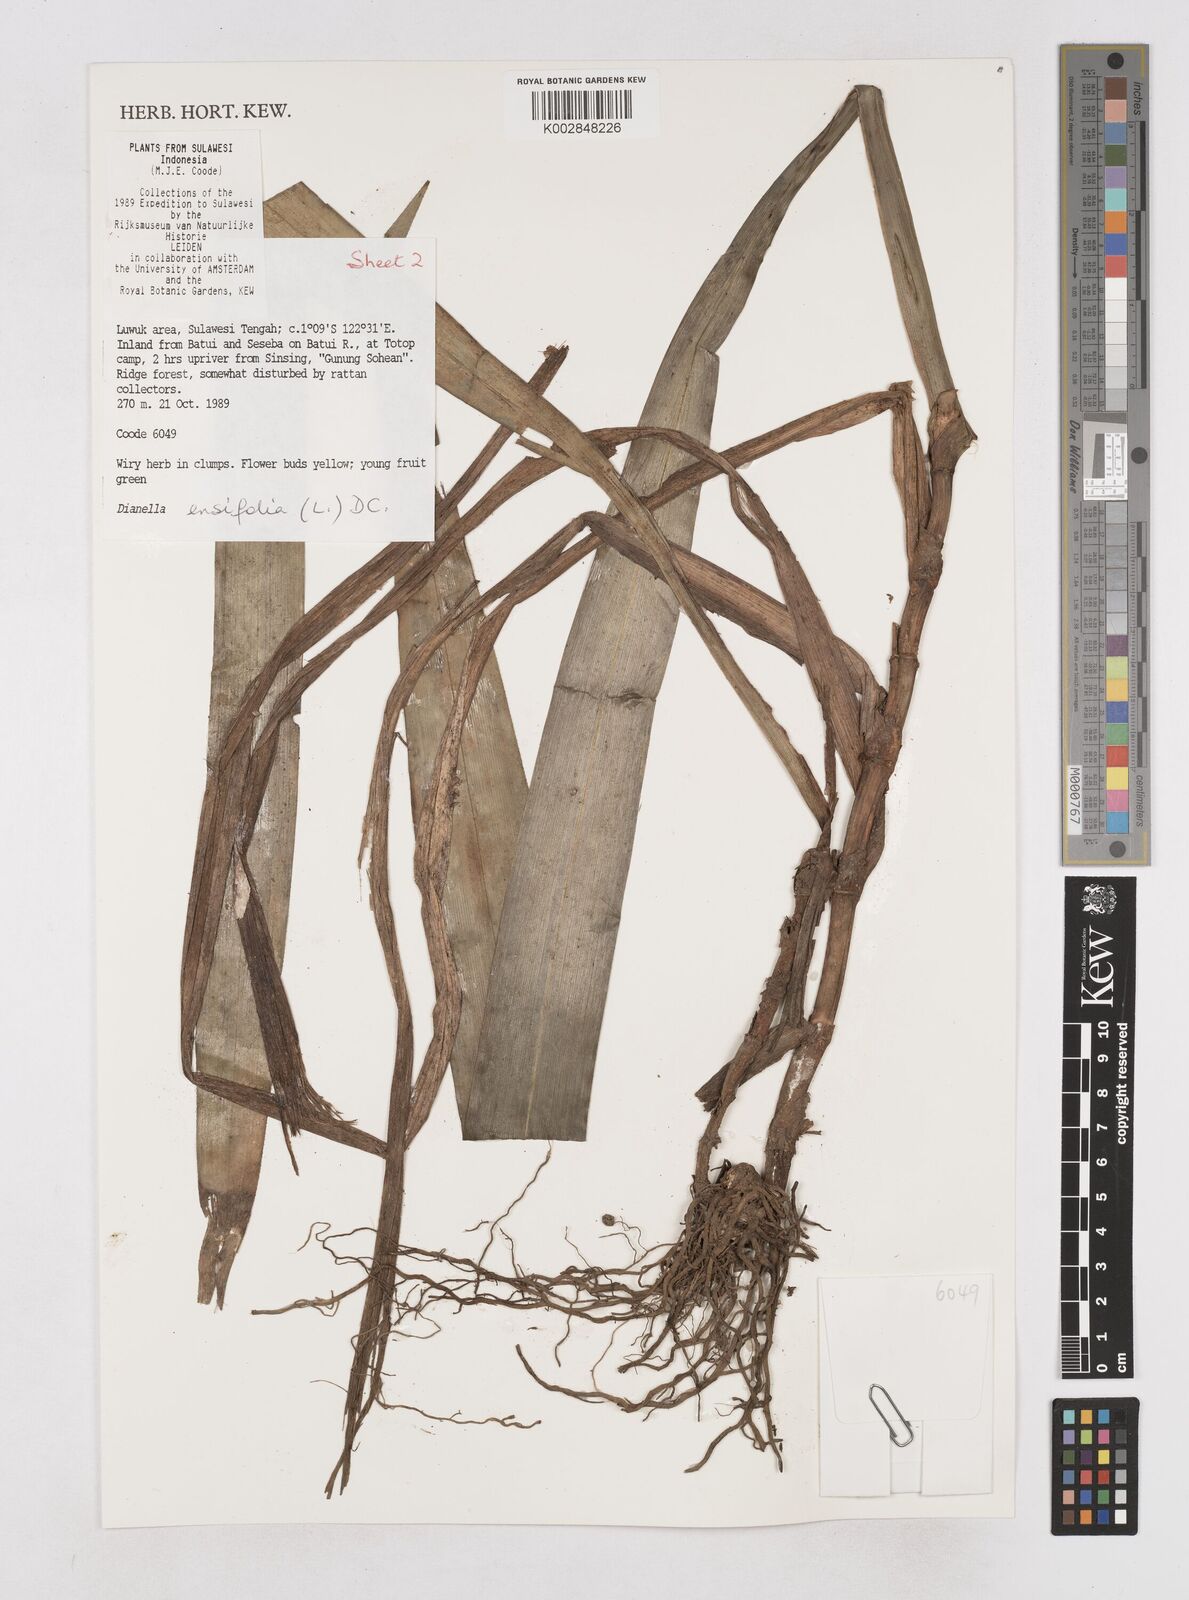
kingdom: Plantae
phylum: Tracheophyta
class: Liliopsida
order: Asparagales
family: Asphodelaceae
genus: Dianella
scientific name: Dianella ensifolia
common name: New zealand lilyplant
